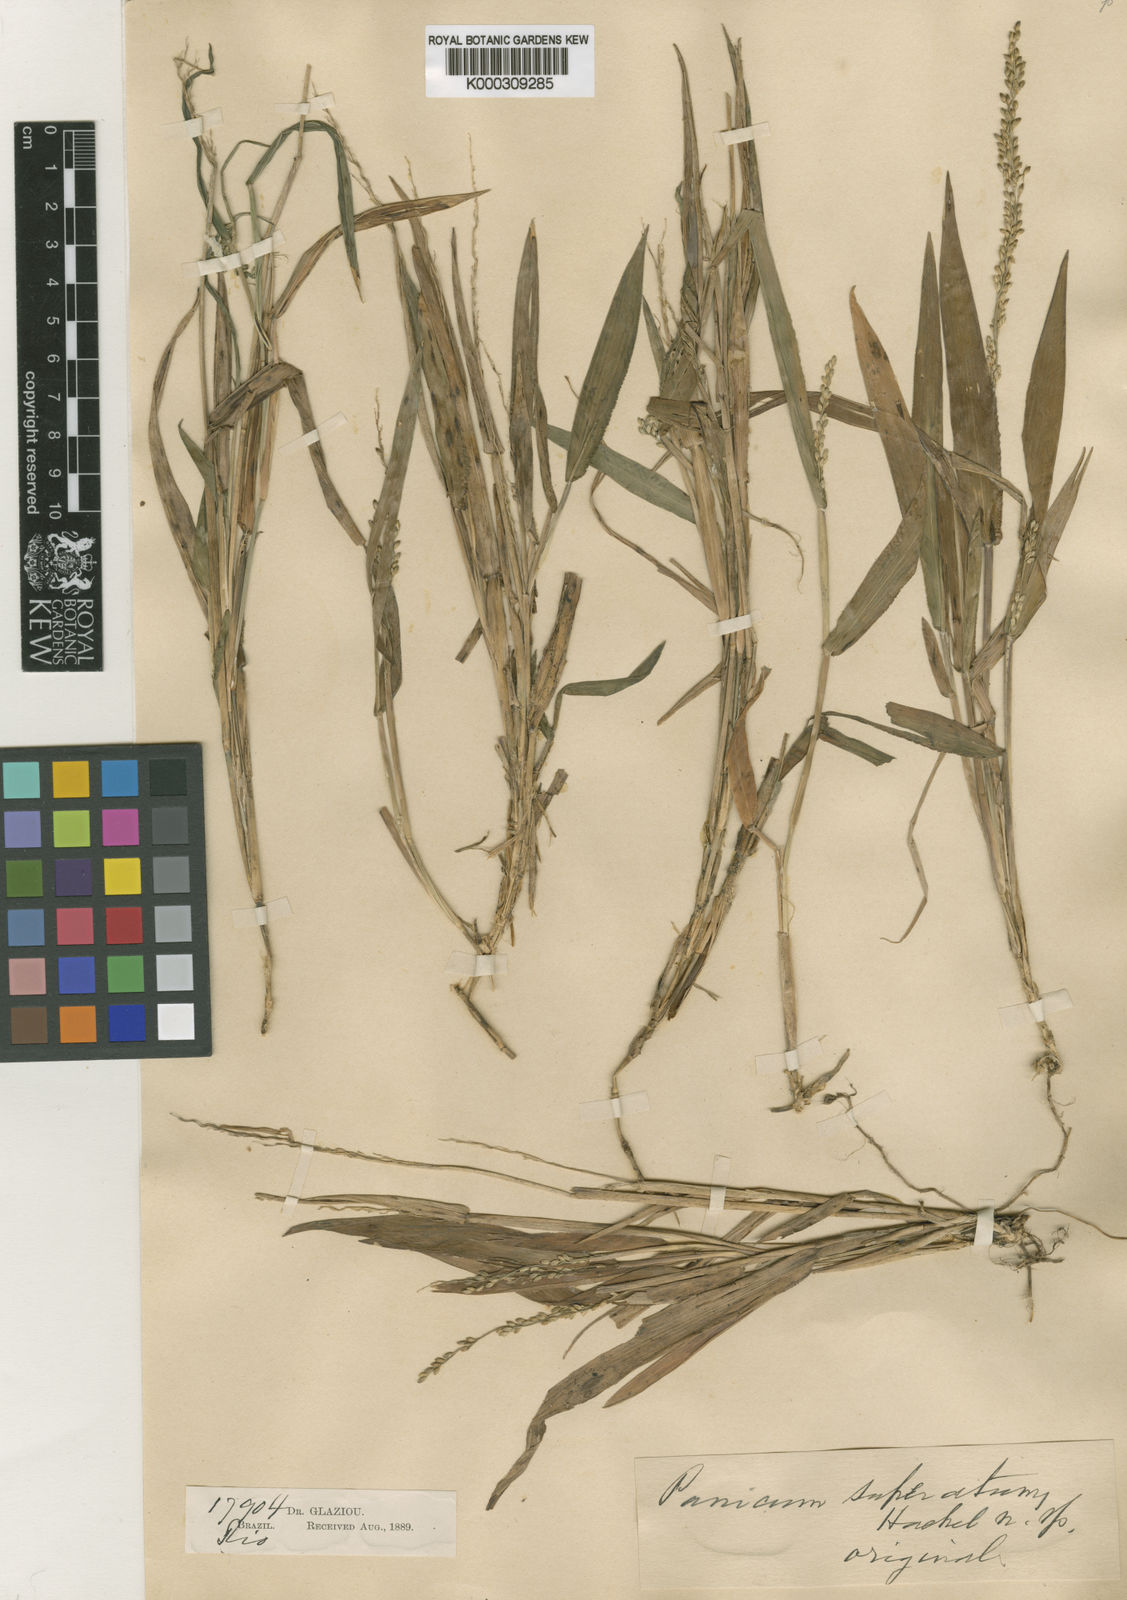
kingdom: Plantae
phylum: Tracheophyta
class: Liliopsida
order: Poales
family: Poaceae
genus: Dichanthelium
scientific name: Dichanthelium superatum
